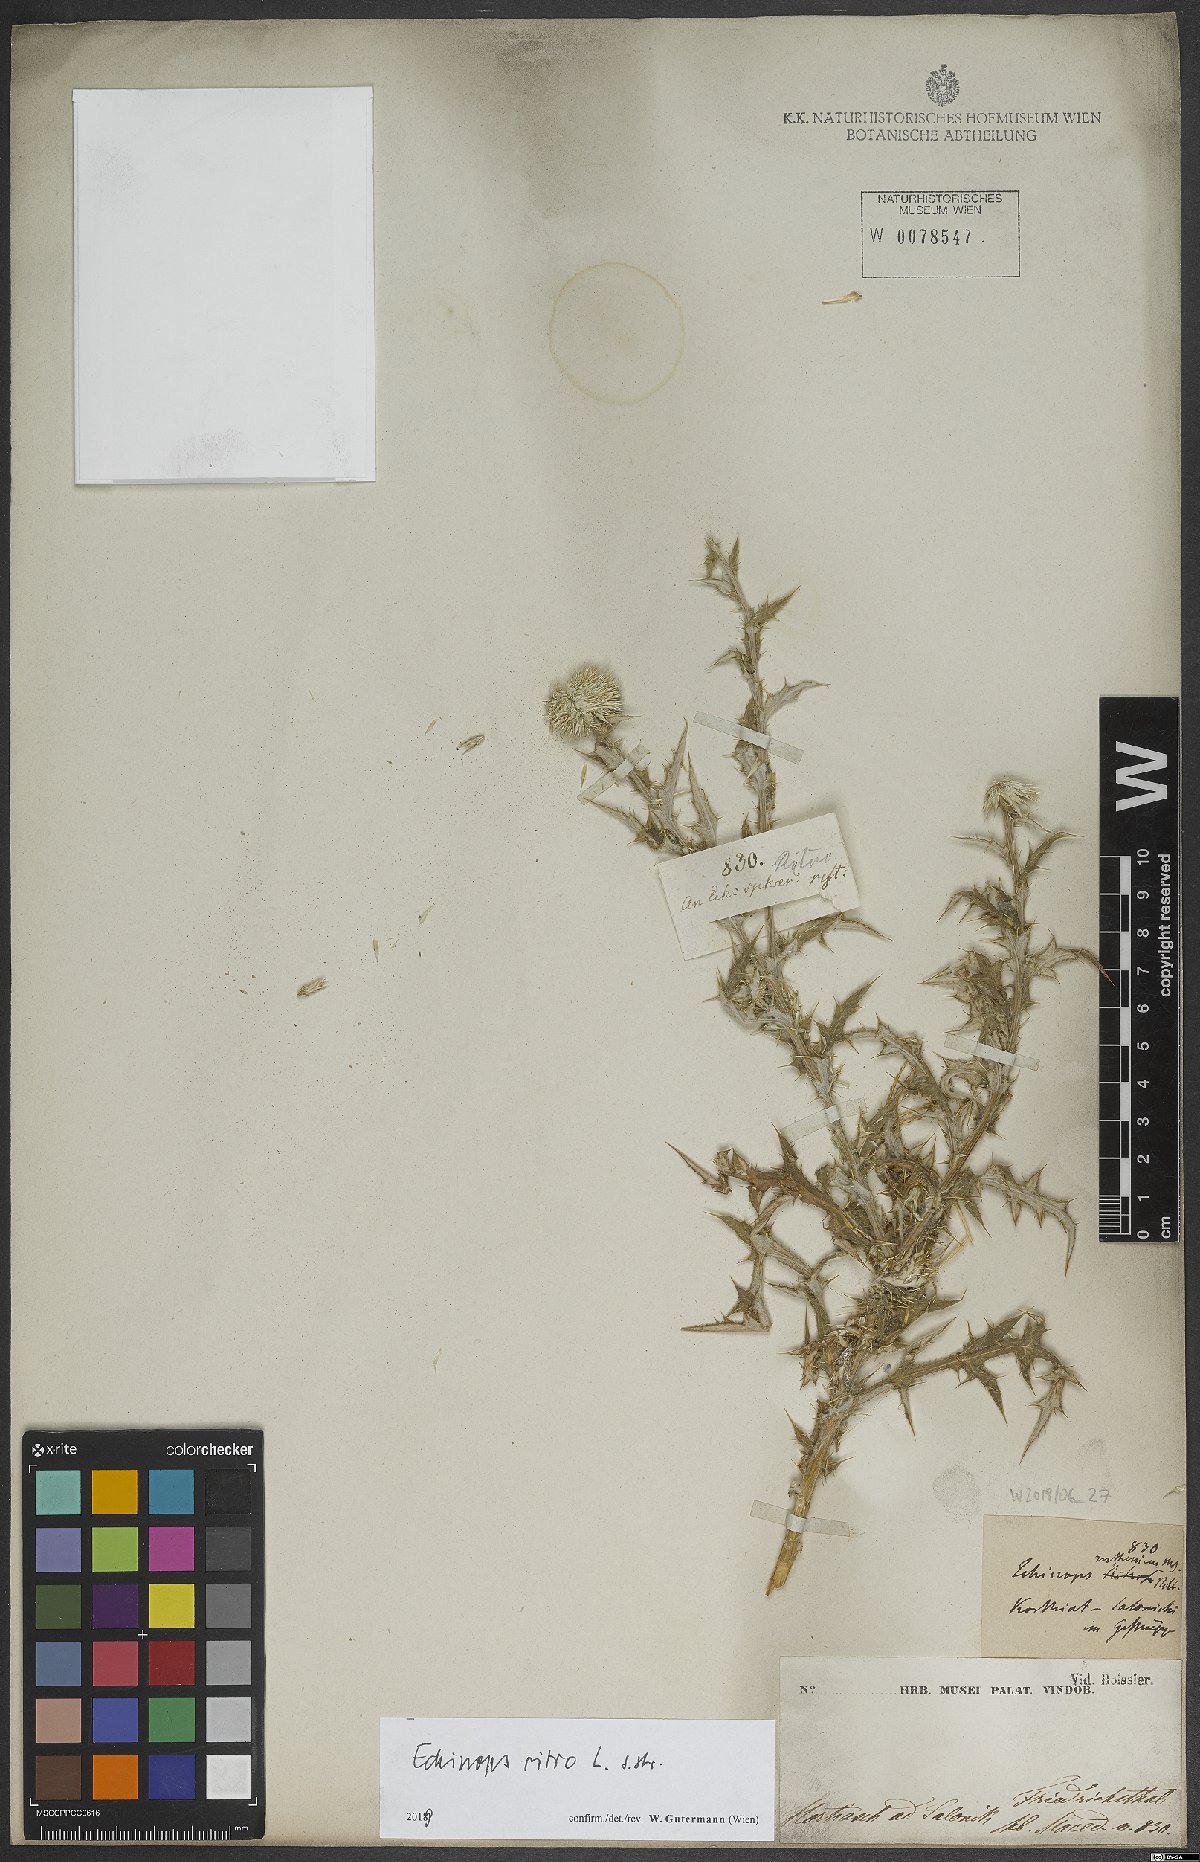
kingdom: Plantae
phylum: Tracheophyta
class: Magnoliopsida
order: Asterales
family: Asteraceae
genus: Echinops
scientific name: Echinops ritro
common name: Globe thistle
